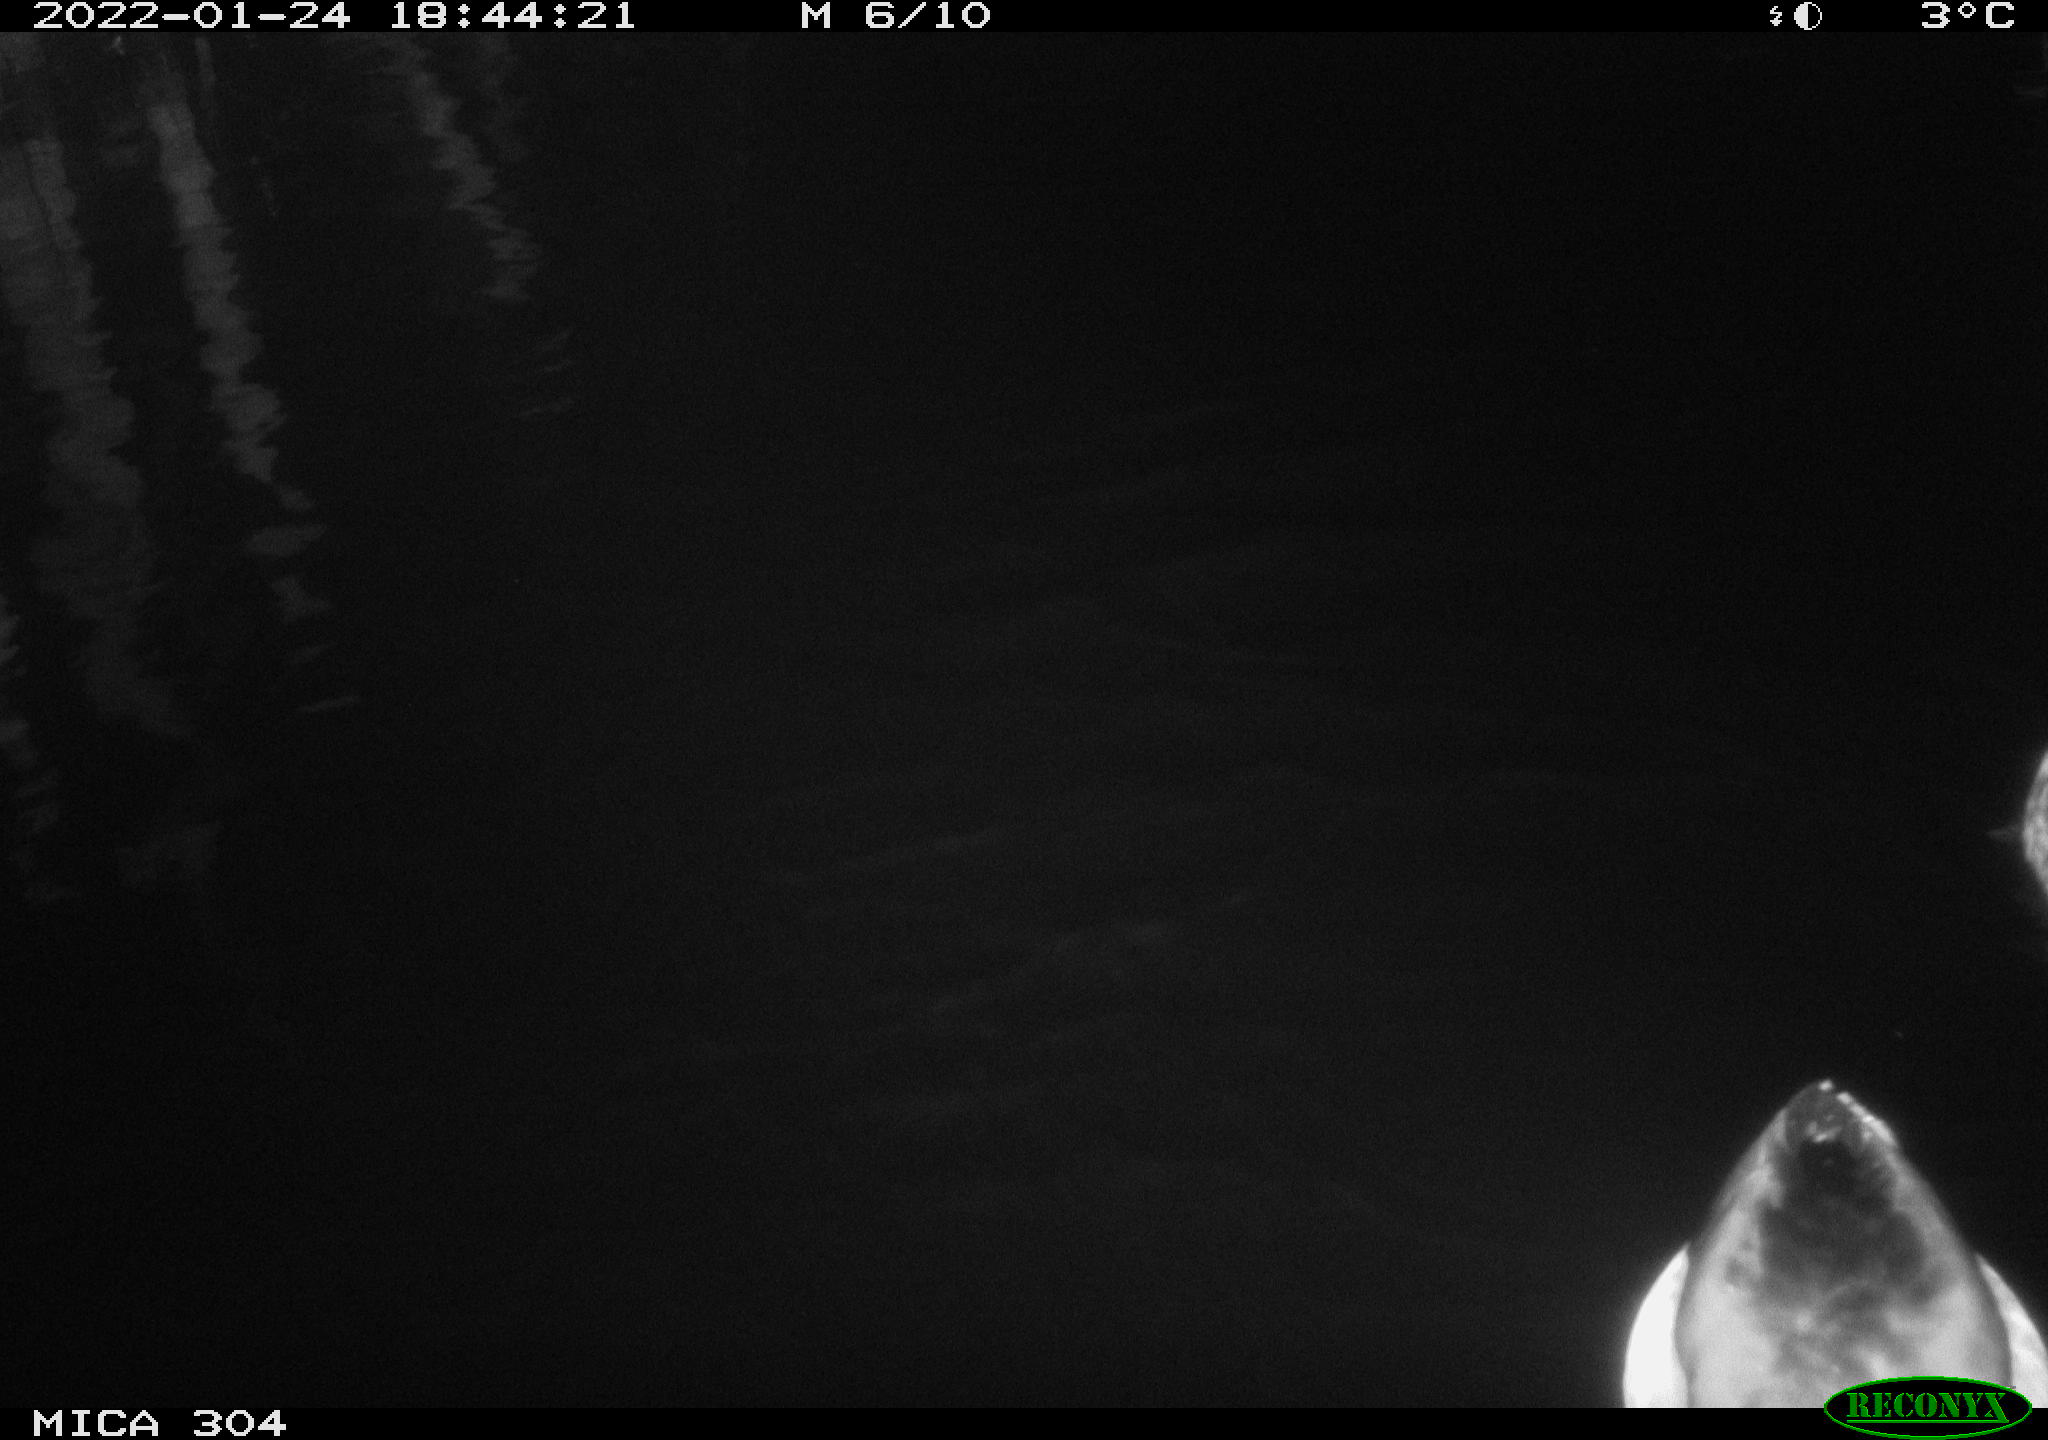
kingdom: Animalia
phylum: Chordata
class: Aves
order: Anseriformes
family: Anatidae
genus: Anas
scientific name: Anas
